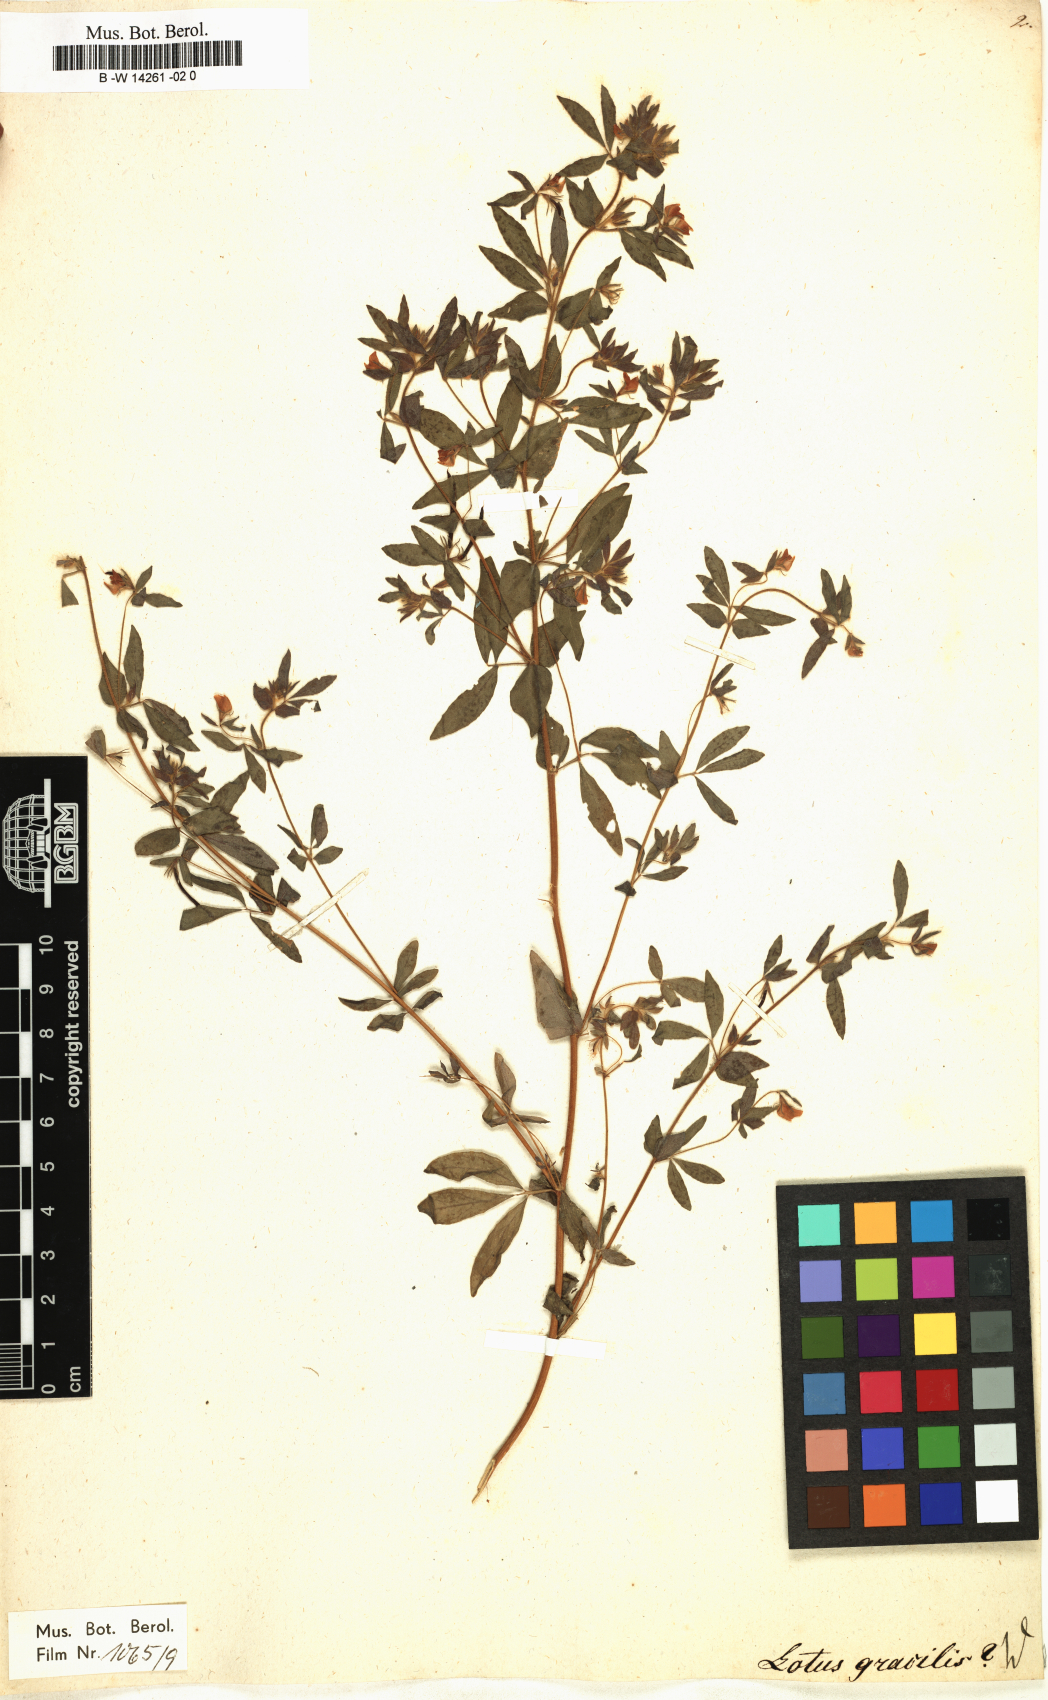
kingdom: Plantae
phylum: Tracheophyta
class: Magnoliopsida
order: Fabales
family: Fabaceae
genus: Lotus
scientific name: Lotus
